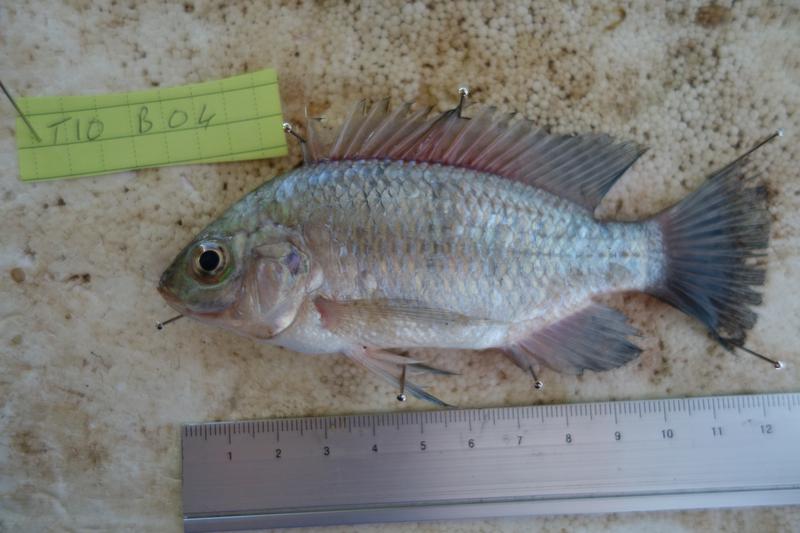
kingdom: Animalia
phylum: Chordata
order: Perciformes
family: Cichlidae
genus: Oreochromis
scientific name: Oreochromis rukwaensis
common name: Lake rukwa tilapia
